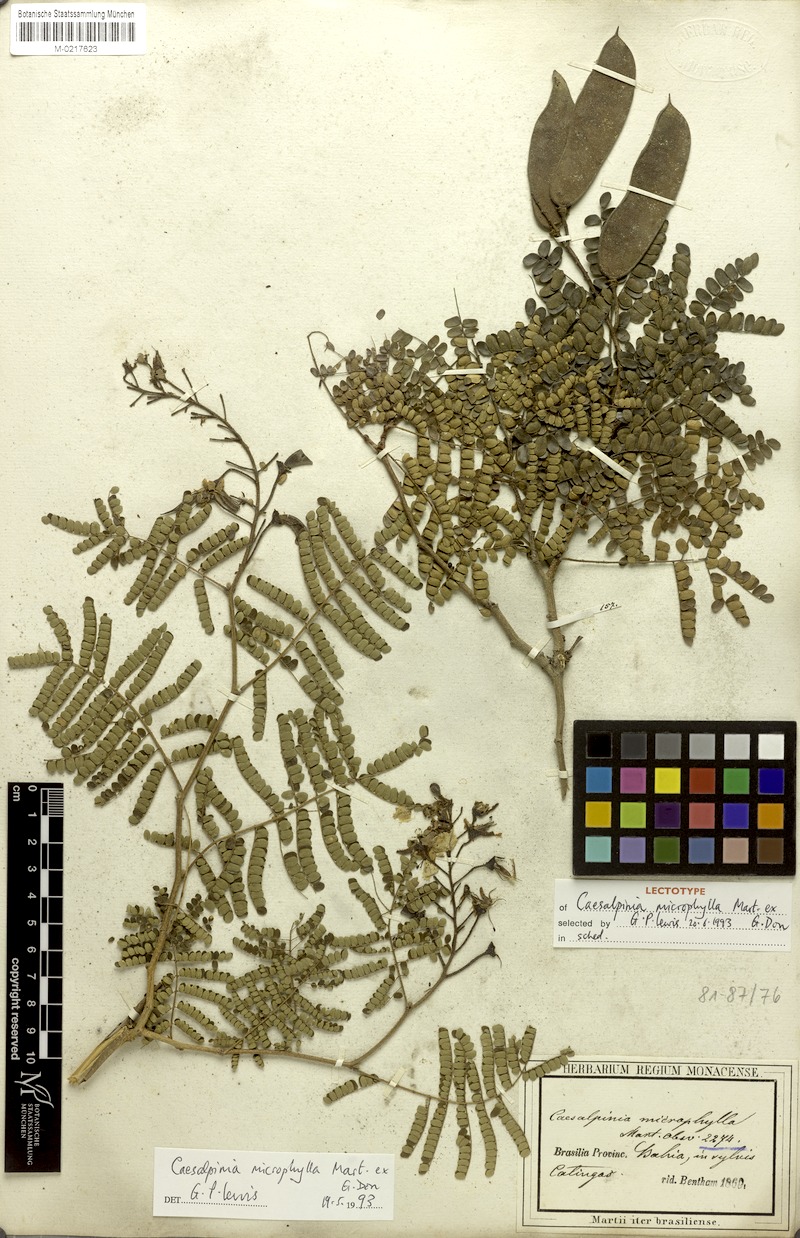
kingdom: Plantae
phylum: Tracheophyta
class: Magnoliopsida
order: Fabales
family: Fabaceae
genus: Cenostigma
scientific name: Cenostigma microphyllum
